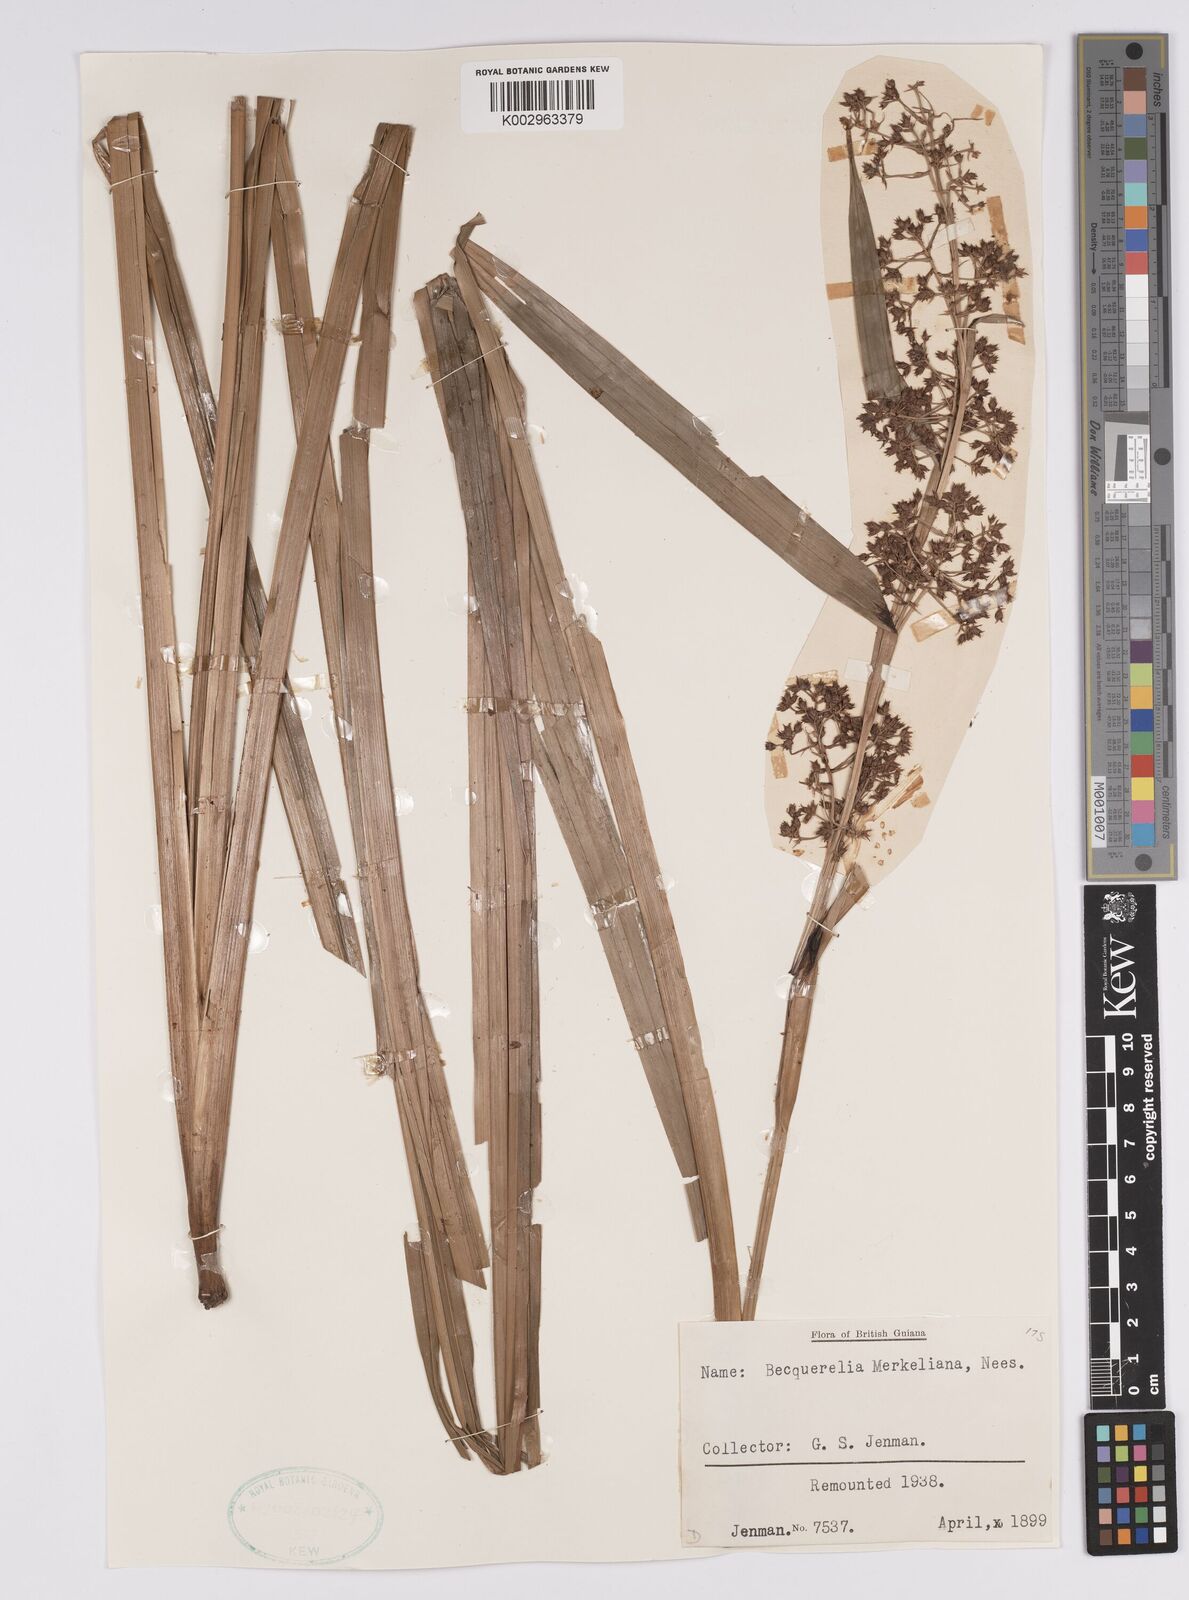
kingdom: Plantae
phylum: Tracheophyta
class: Liliopsida
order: Poales
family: Cyperaceae
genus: Becquerelia
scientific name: Becquerelia merkeliana
